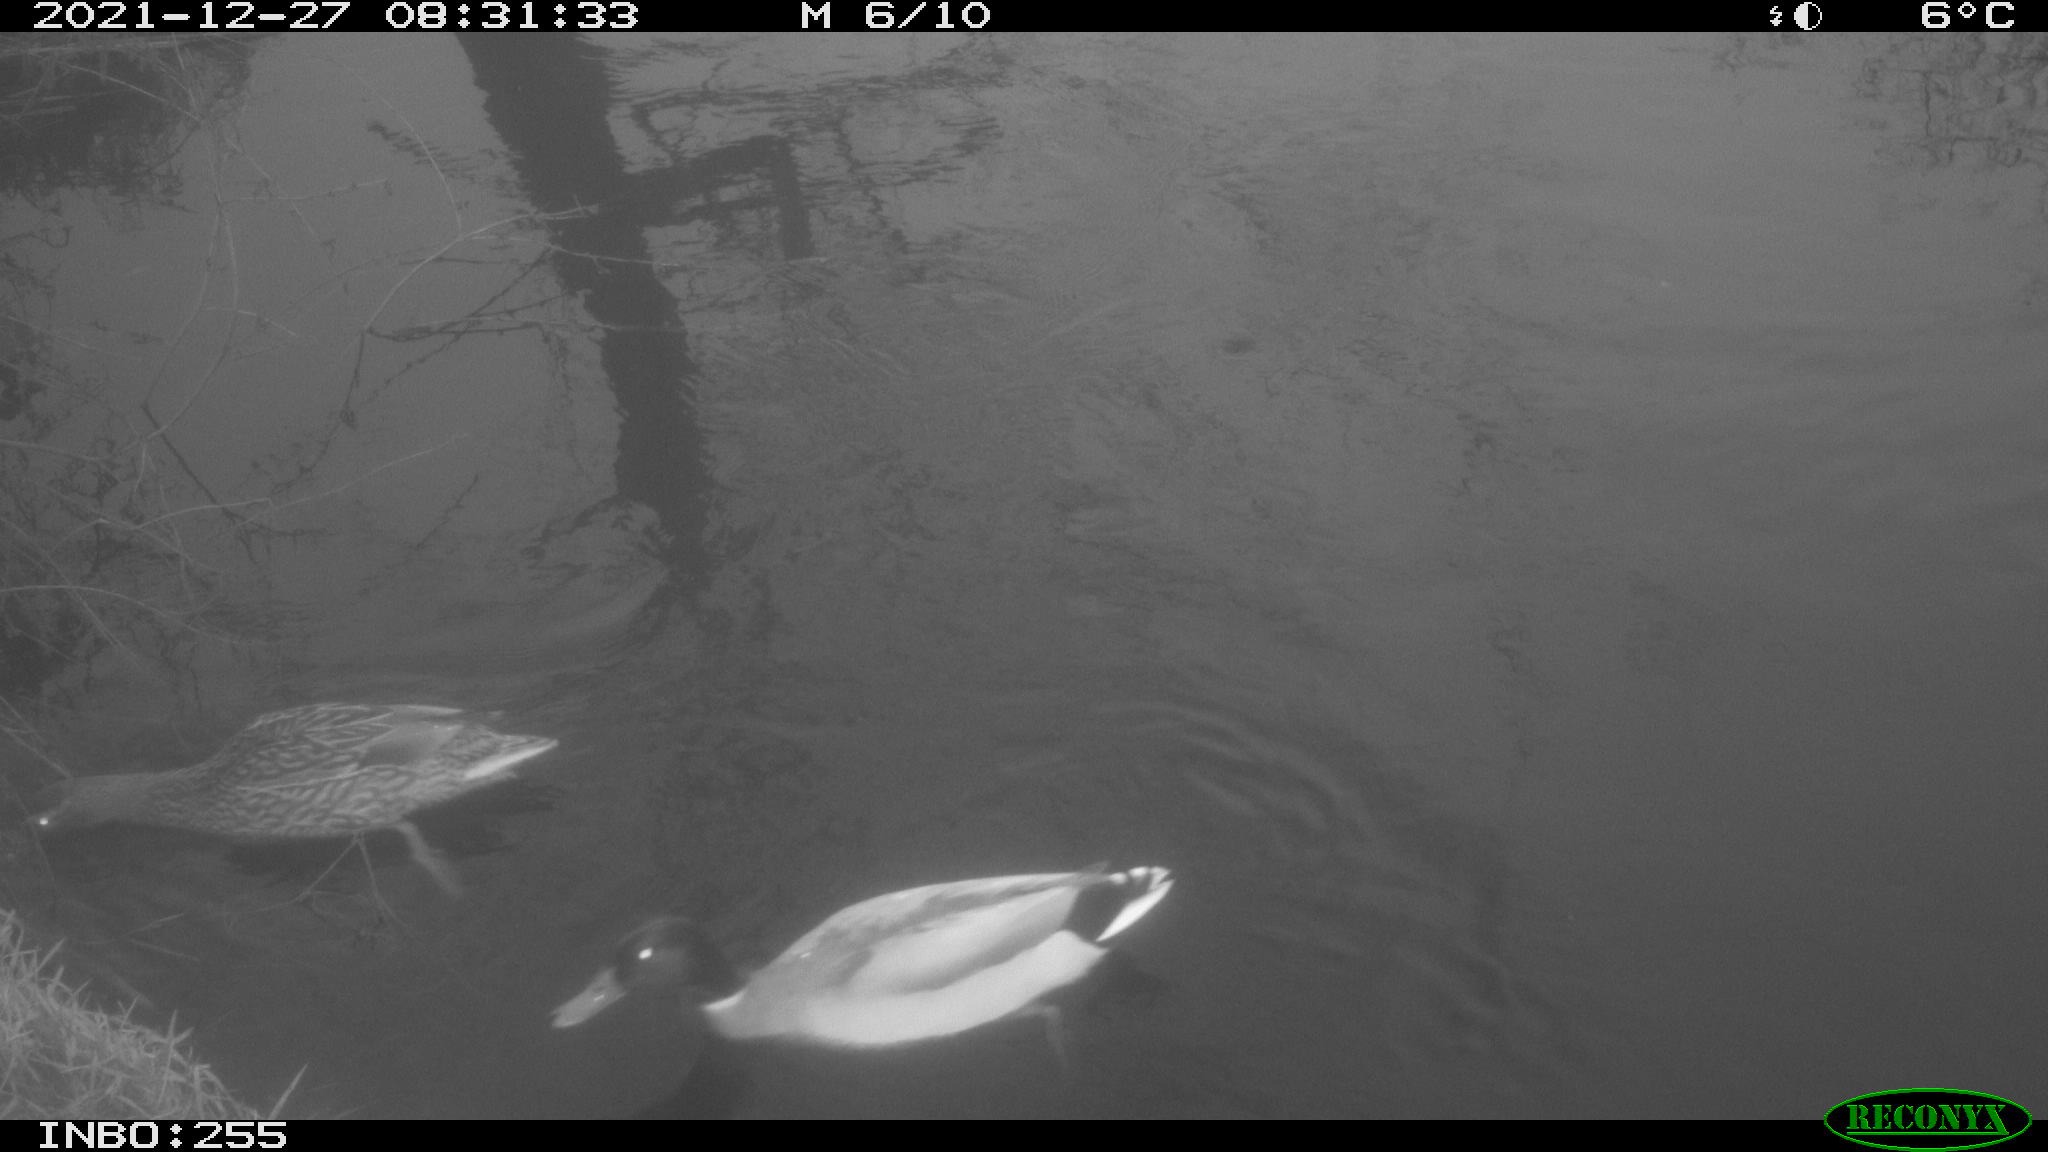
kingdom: Animalia
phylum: Chordata
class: Aves
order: Anseriformes
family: Anatidae
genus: Anas
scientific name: Anas platyrhynchos
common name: Mallard
